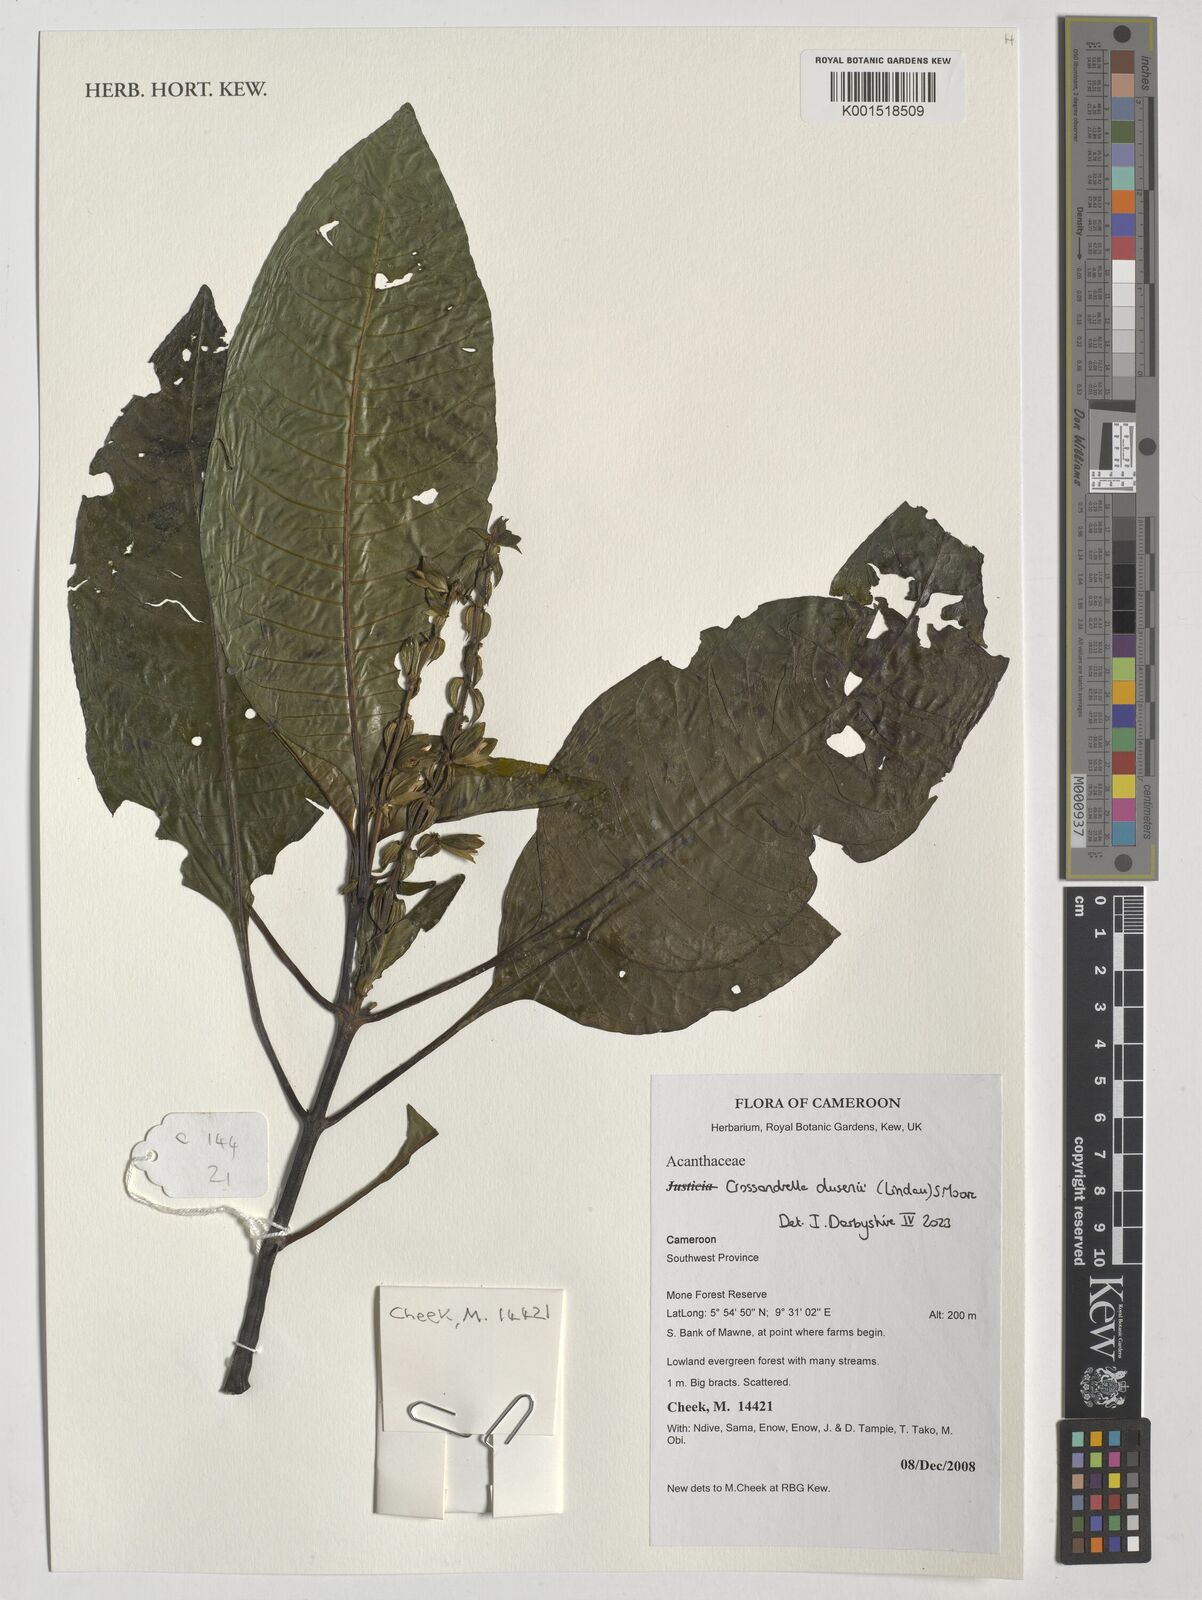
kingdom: Plantae
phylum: Tracheophyta
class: Magnoliopsida
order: Lamiales
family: Acanthaceae
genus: Crossandrella
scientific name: Crossandrella dusenii
